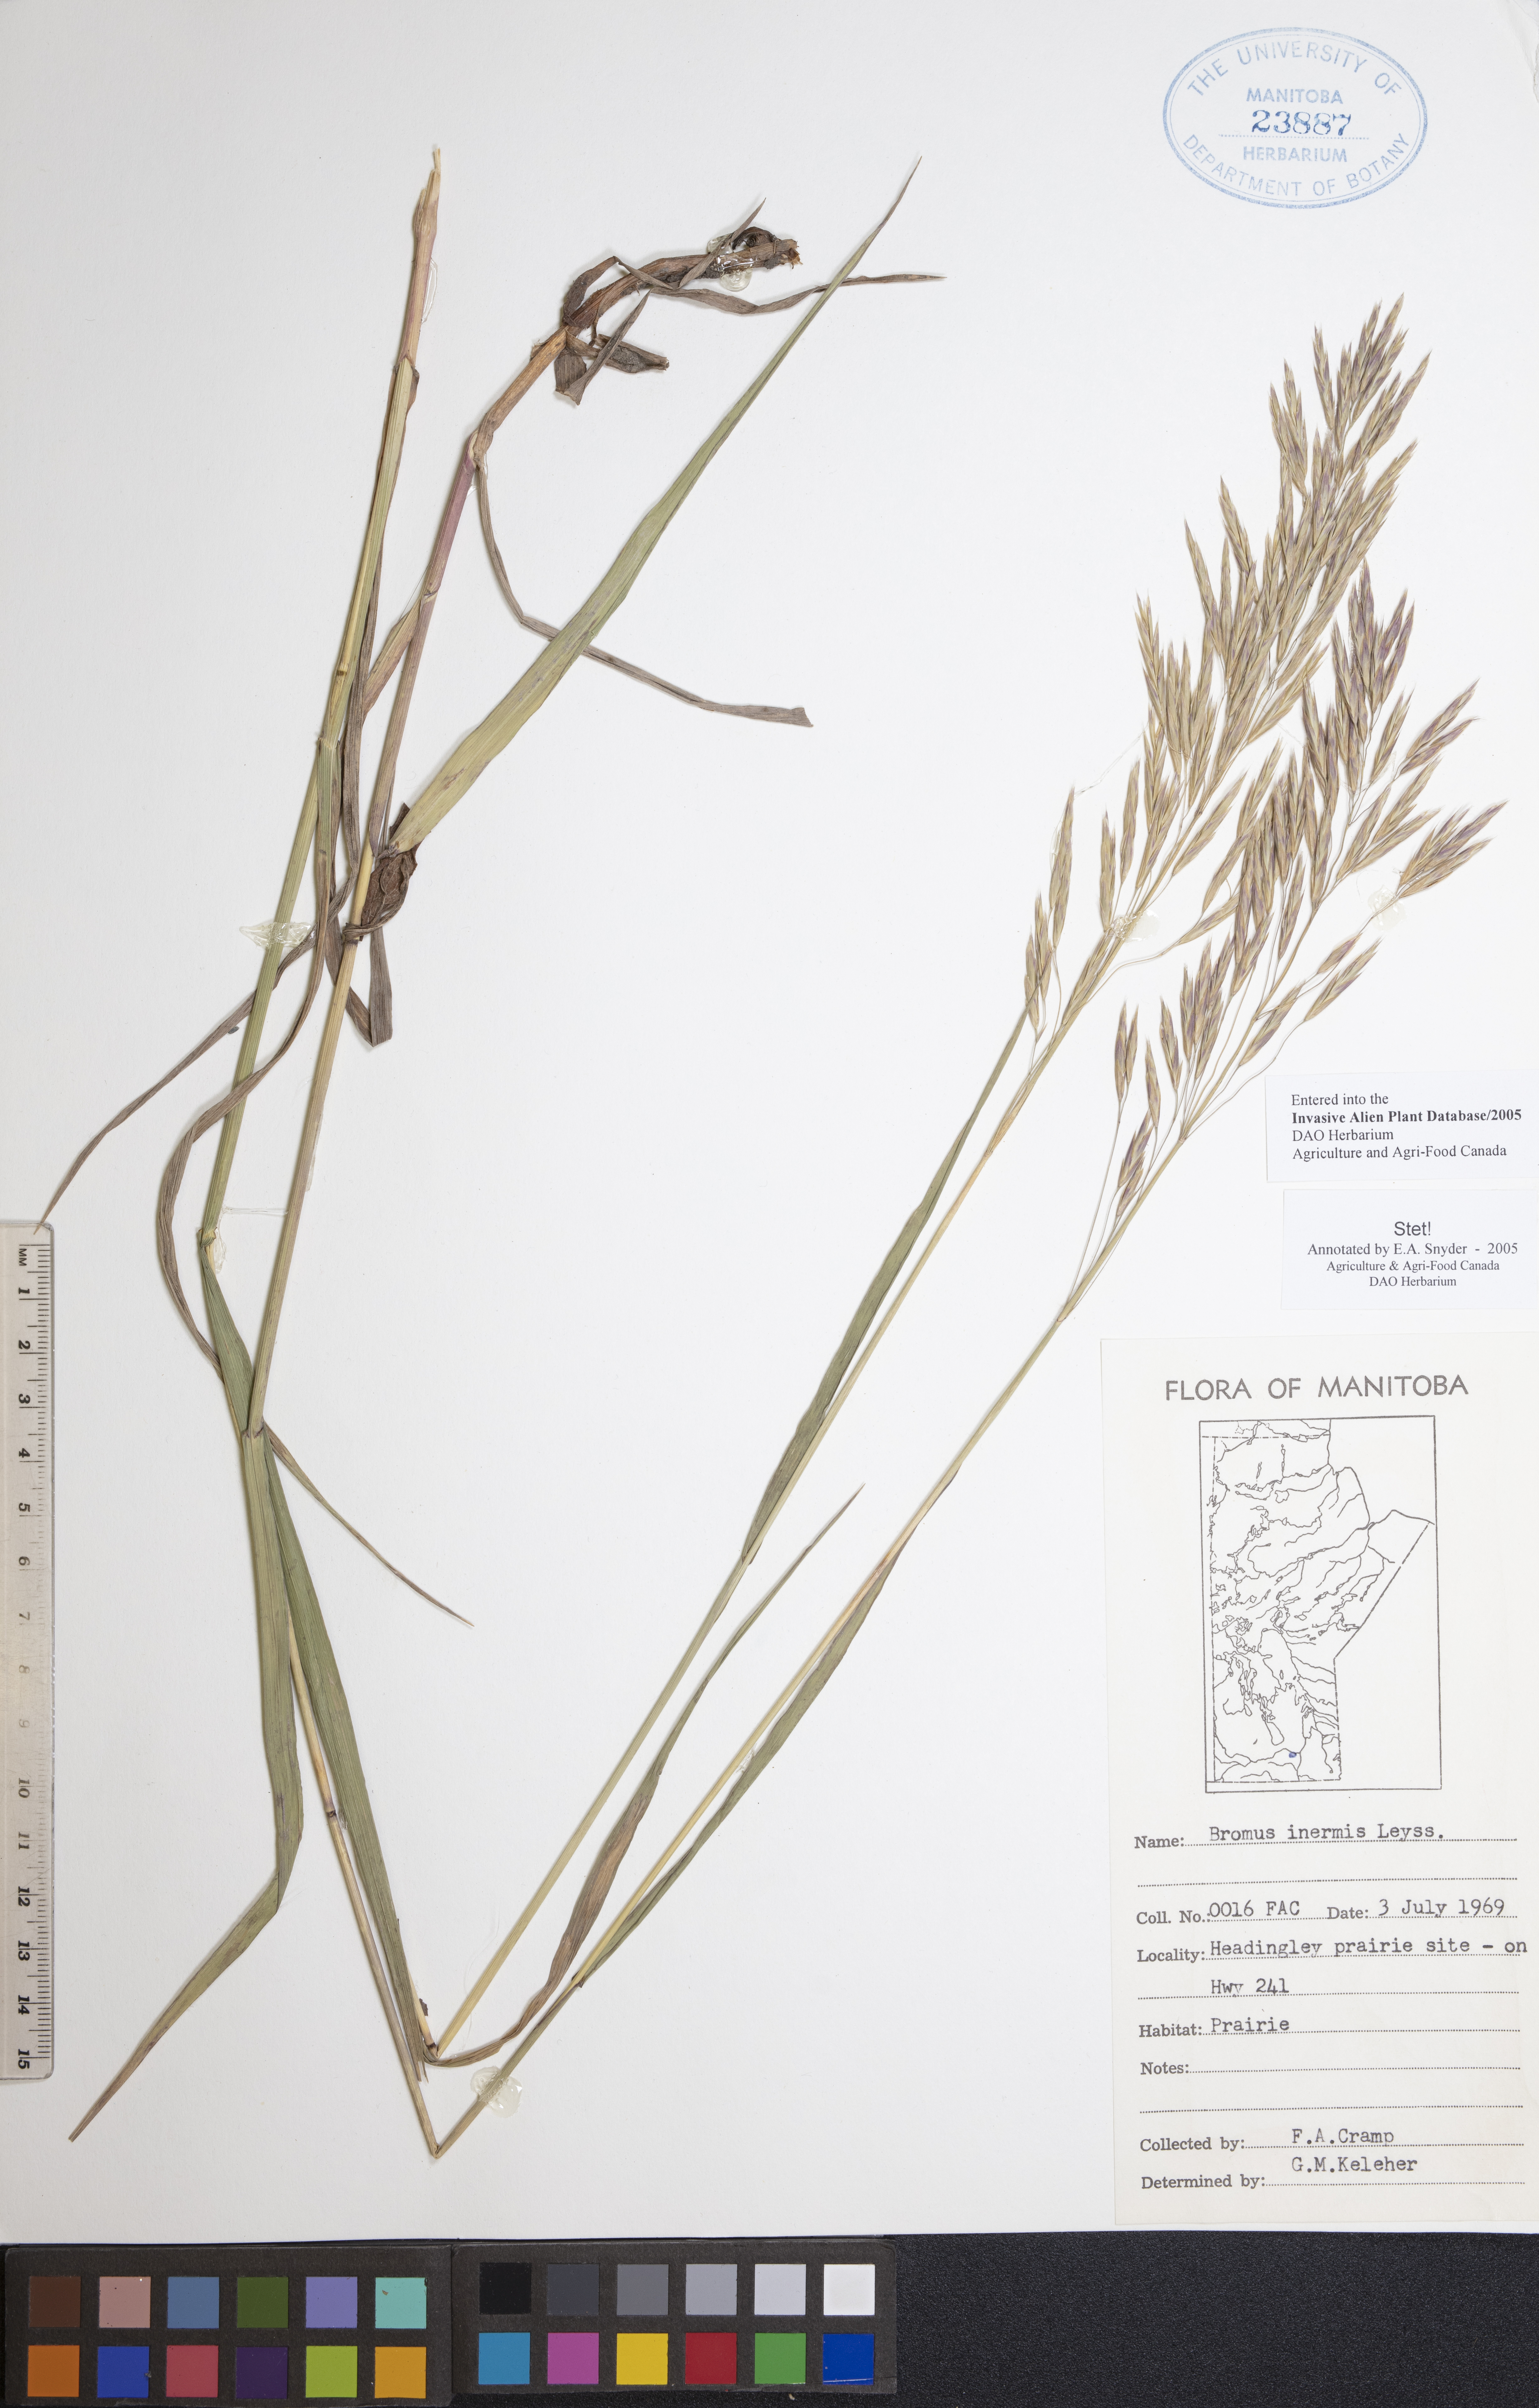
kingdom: Plantae
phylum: Tracheophyta
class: Liliopsida
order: Poales
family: Poaceae
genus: Bromus
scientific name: Bromus inermis
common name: Smooth brome
